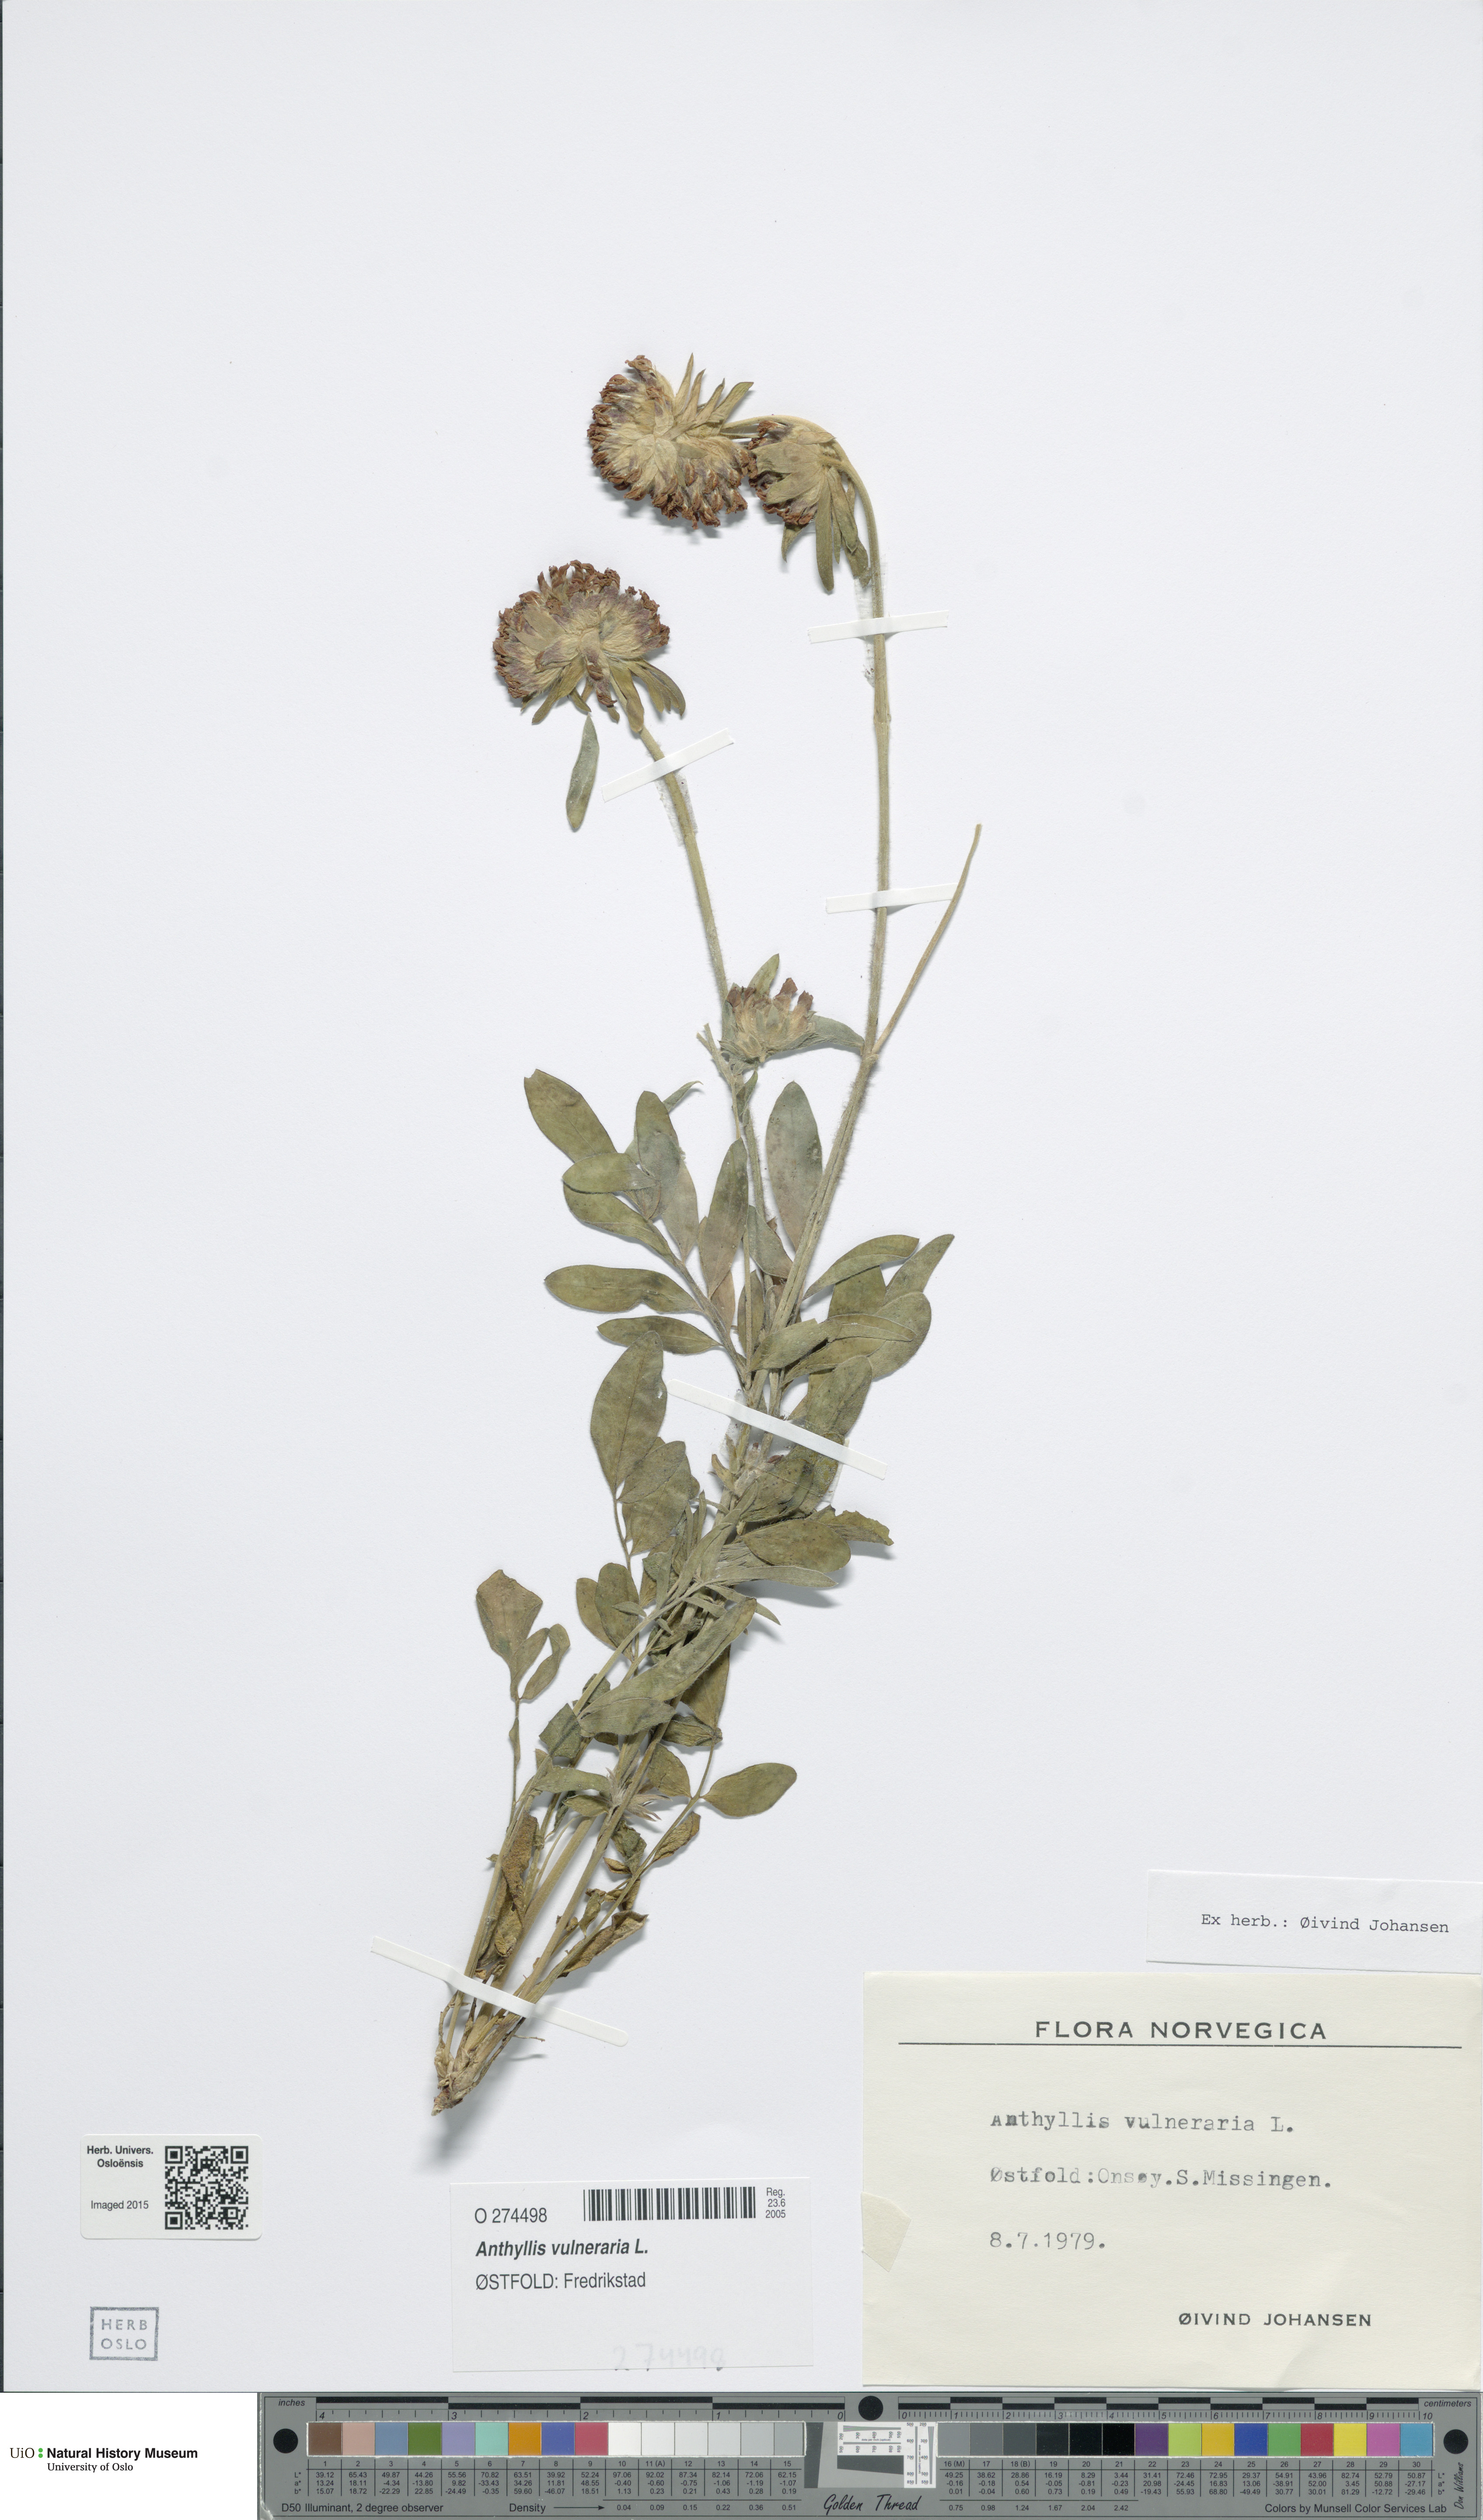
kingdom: Plantae
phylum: Tracheophyta
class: Magnoliopsida
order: Fabales
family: Fabaceae
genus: Anthyllis
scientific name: Anthyllis vulneraria
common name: Kidney vetch
